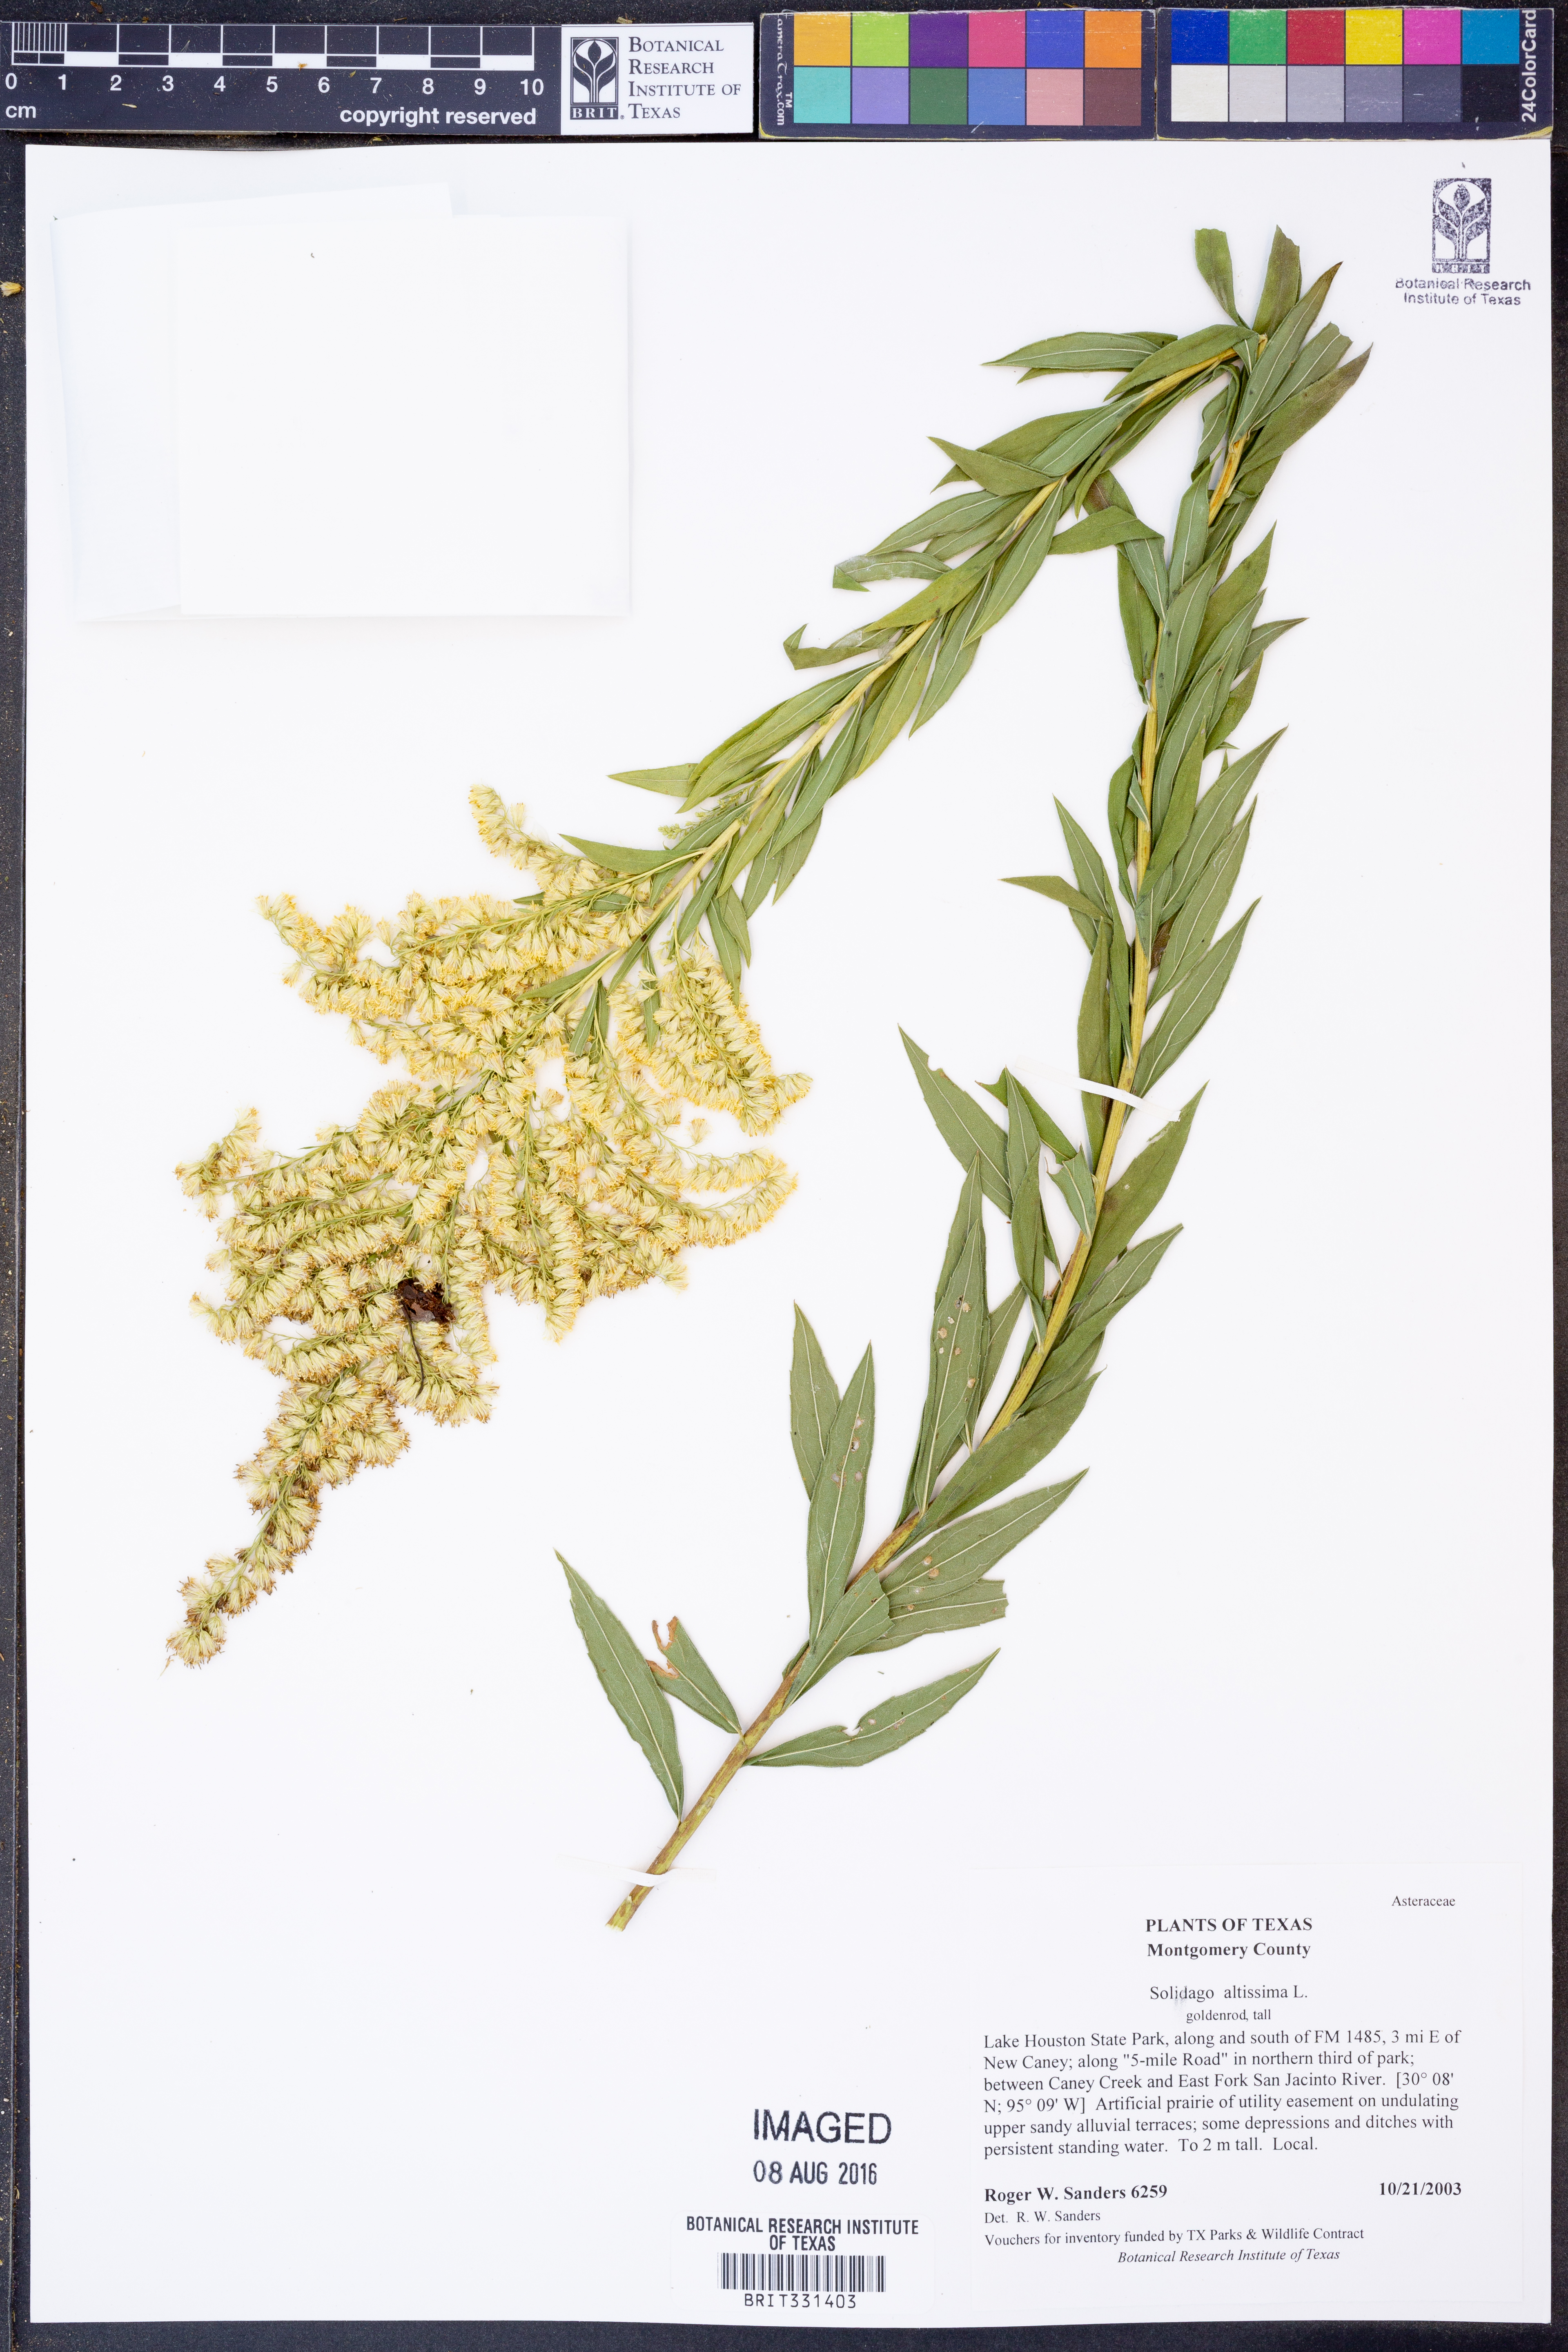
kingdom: Plantae
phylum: Tracheophyta
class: Magnoliopsida
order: Asterales
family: Asteraceae
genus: Solidago
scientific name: Solidago altissima
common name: Late goldenrod
